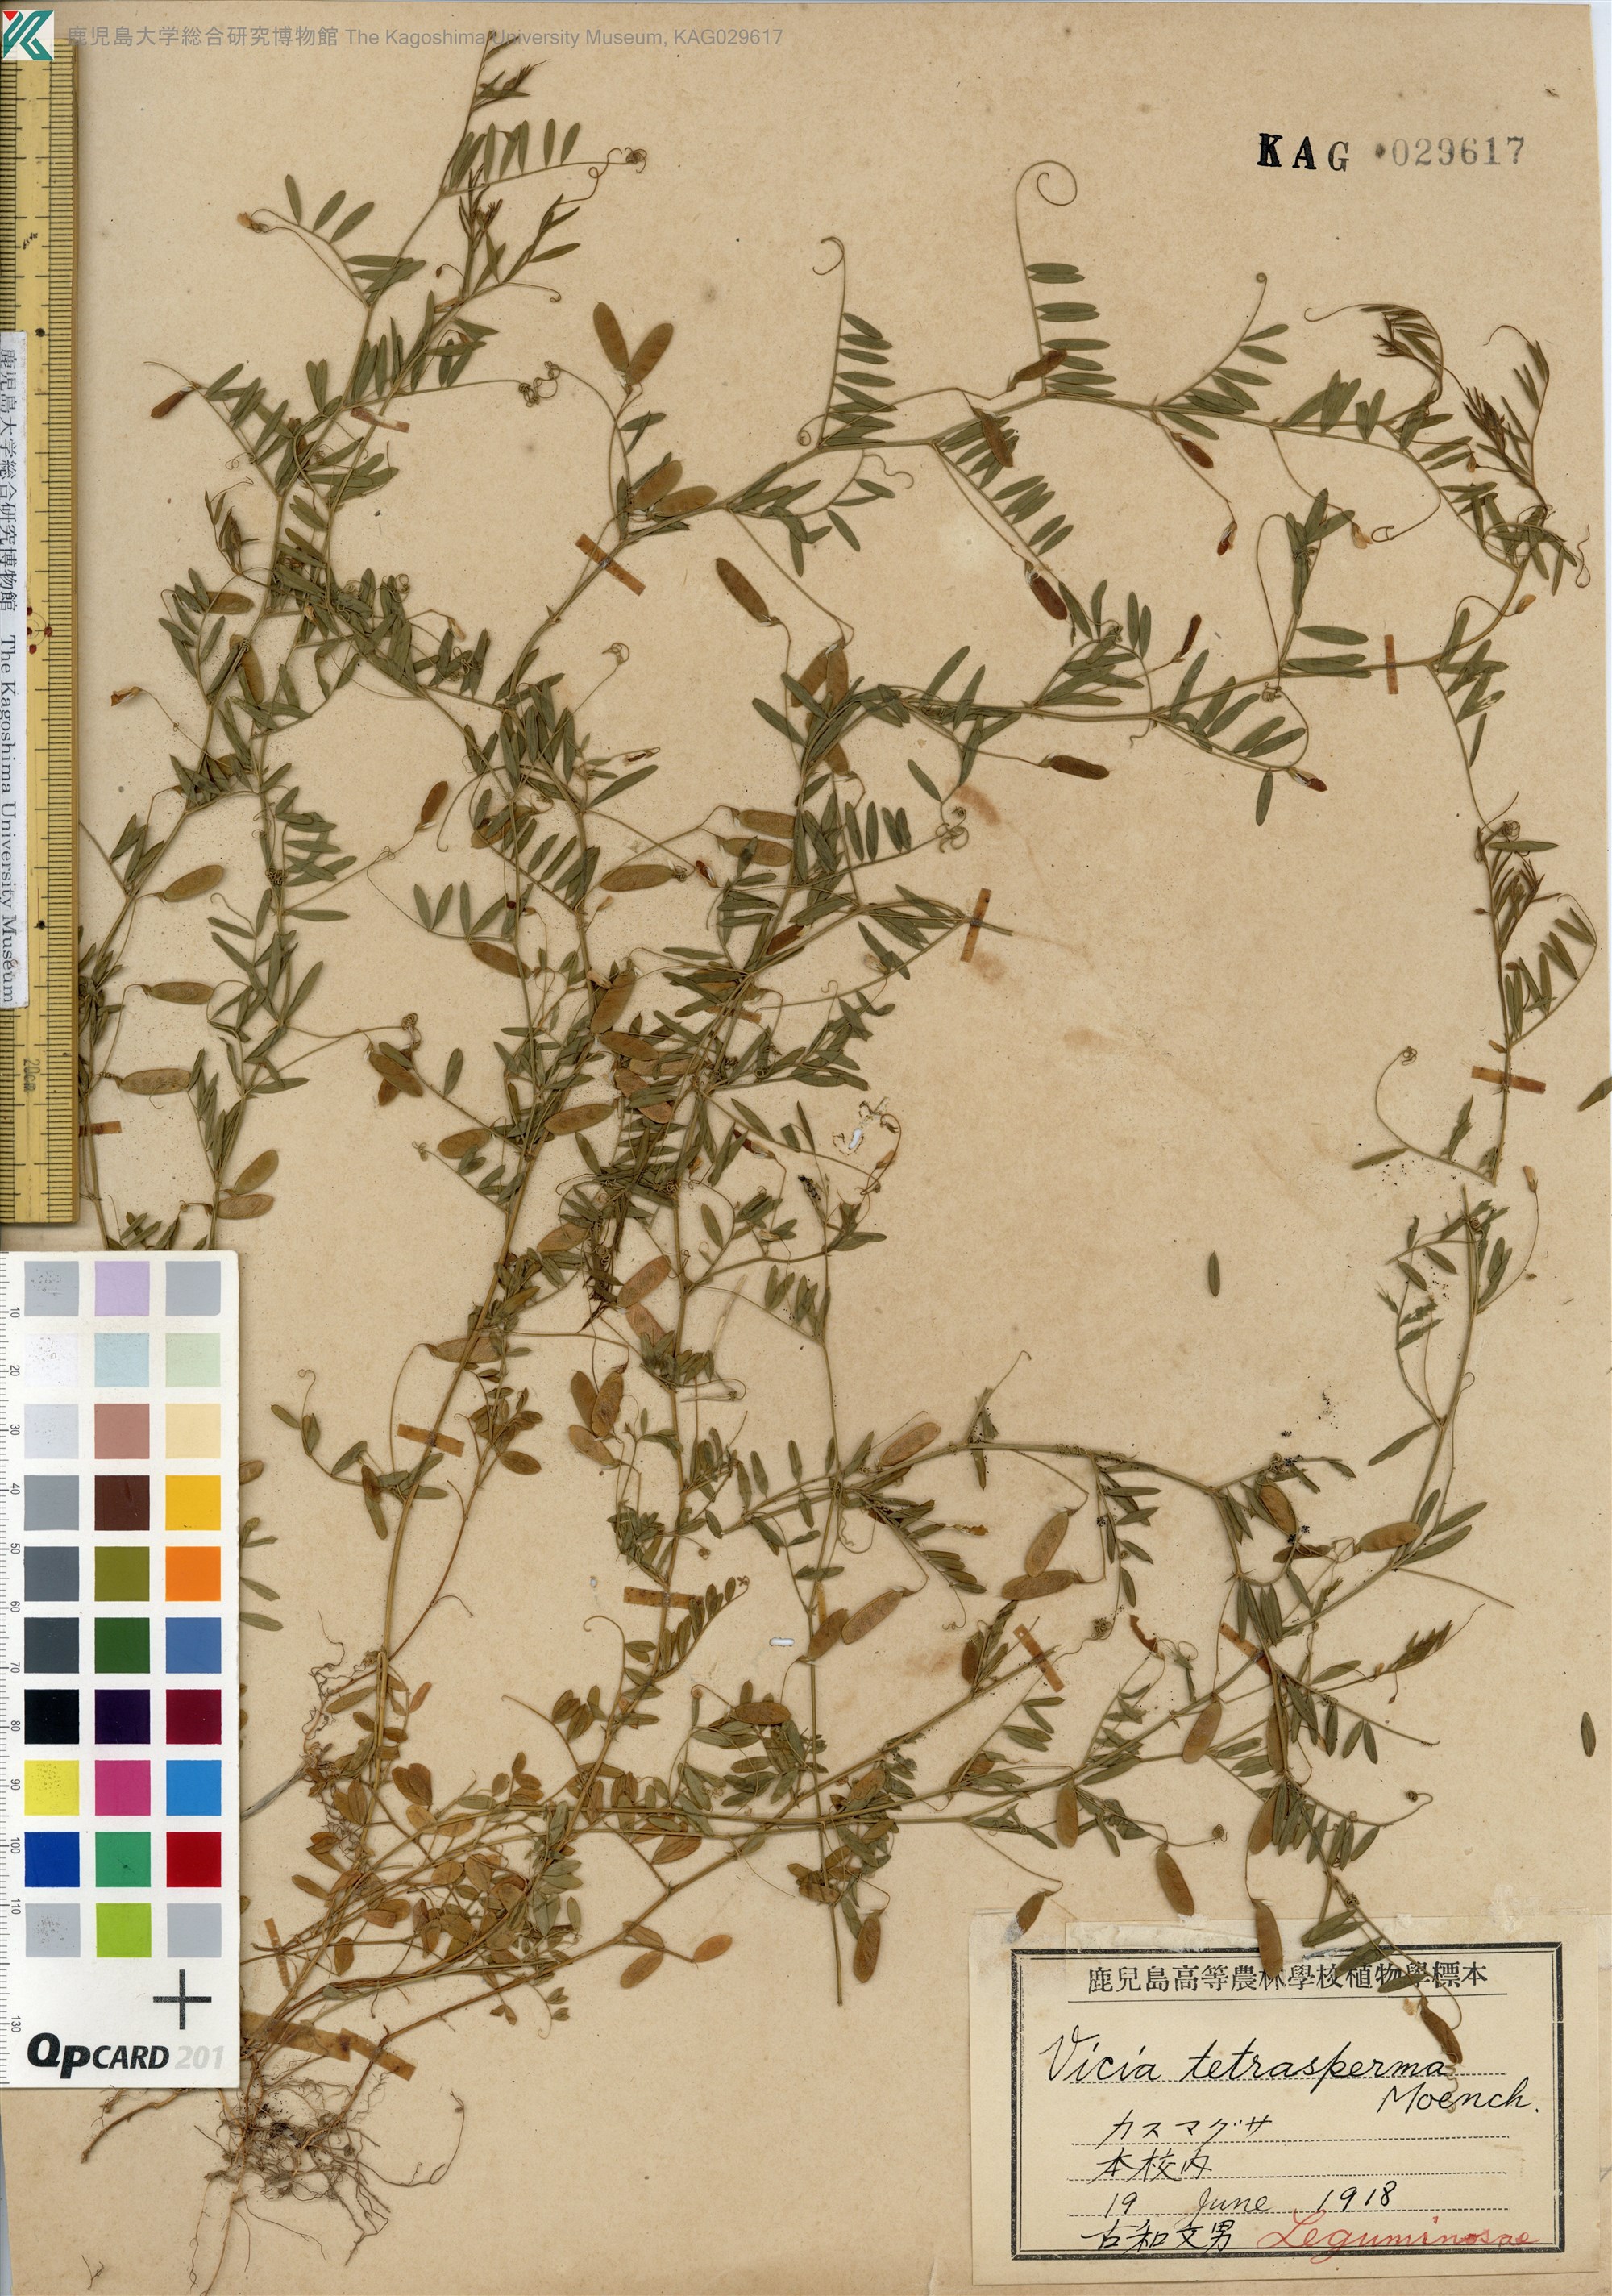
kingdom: Plantae
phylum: Tracheophyta
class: Magnoliopsida
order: Fabales
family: Fabaceae
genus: Vicia
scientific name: Vicia tetrasperma
